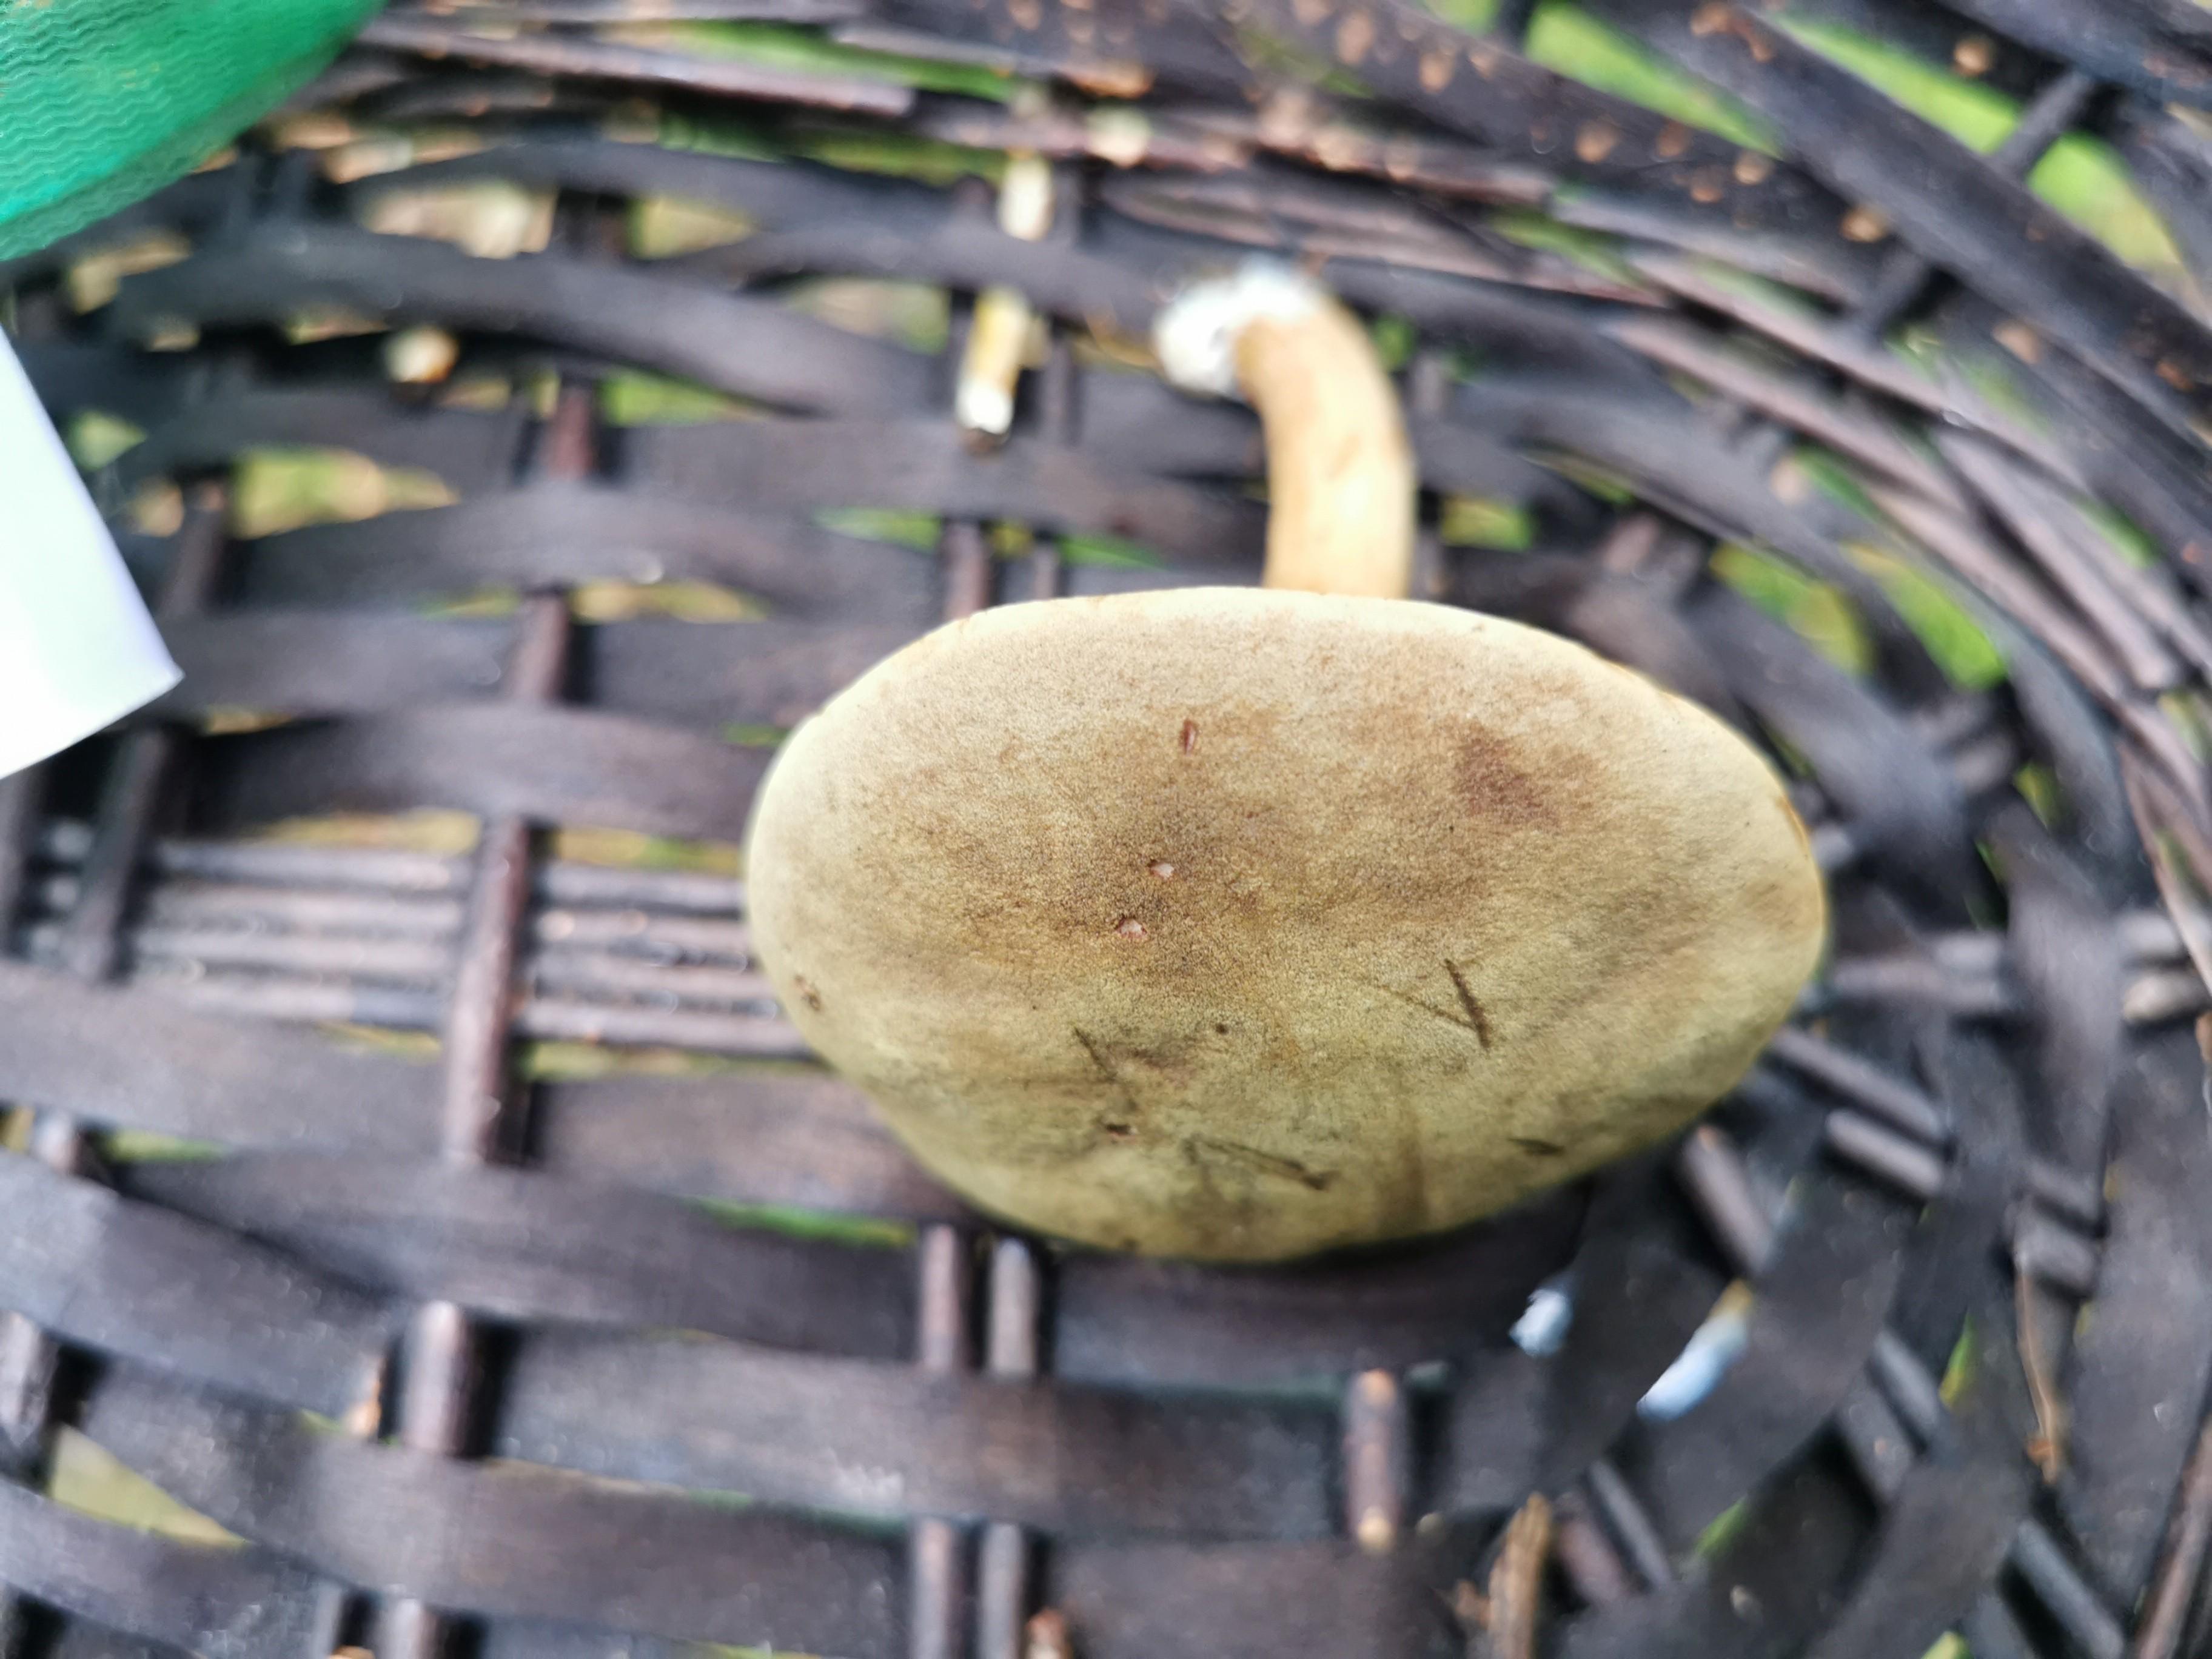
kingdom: Fungi
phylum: Basidiomycota
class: Agaricomycetes
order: Boletales
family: Boletaceae
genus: Xerocomus
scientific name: Xerocomus
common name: filtrørhat
